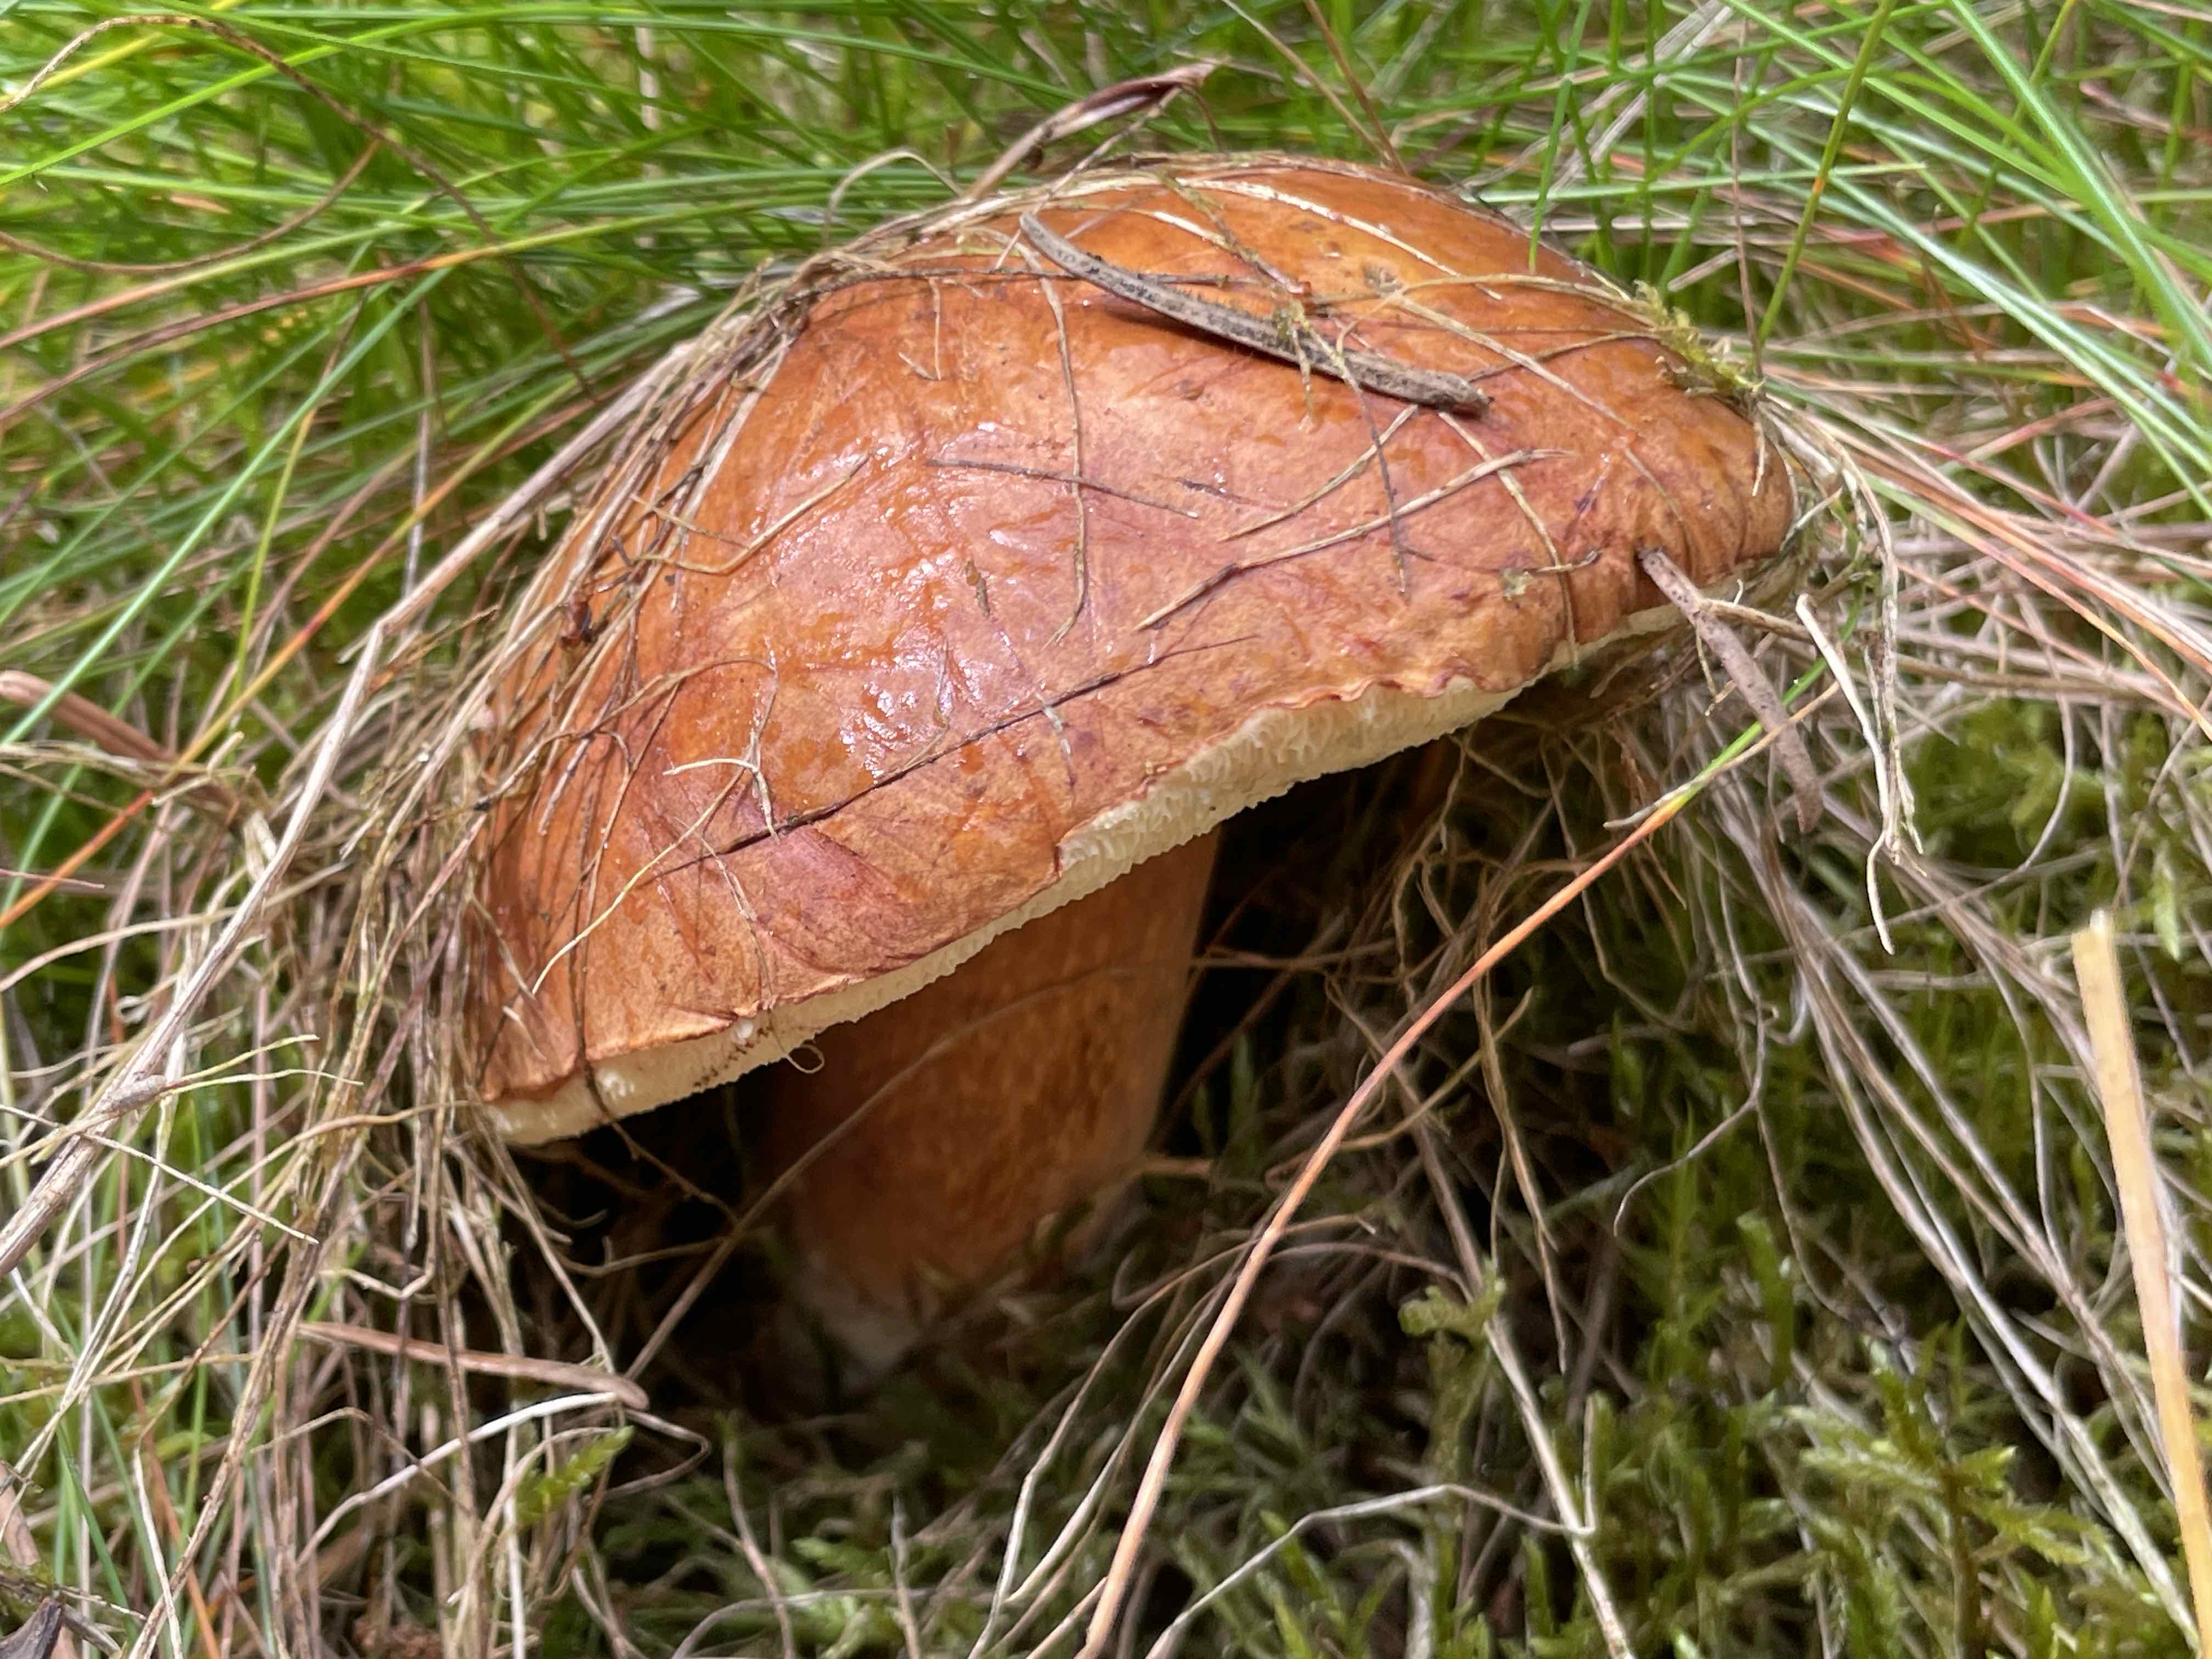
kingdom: Fungi
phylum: Basidiomycota
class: Agaricomycetes
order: Boletales
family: Boletaceae
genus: Imleria
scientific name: Imleria badia
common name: brunstokket rørhat
